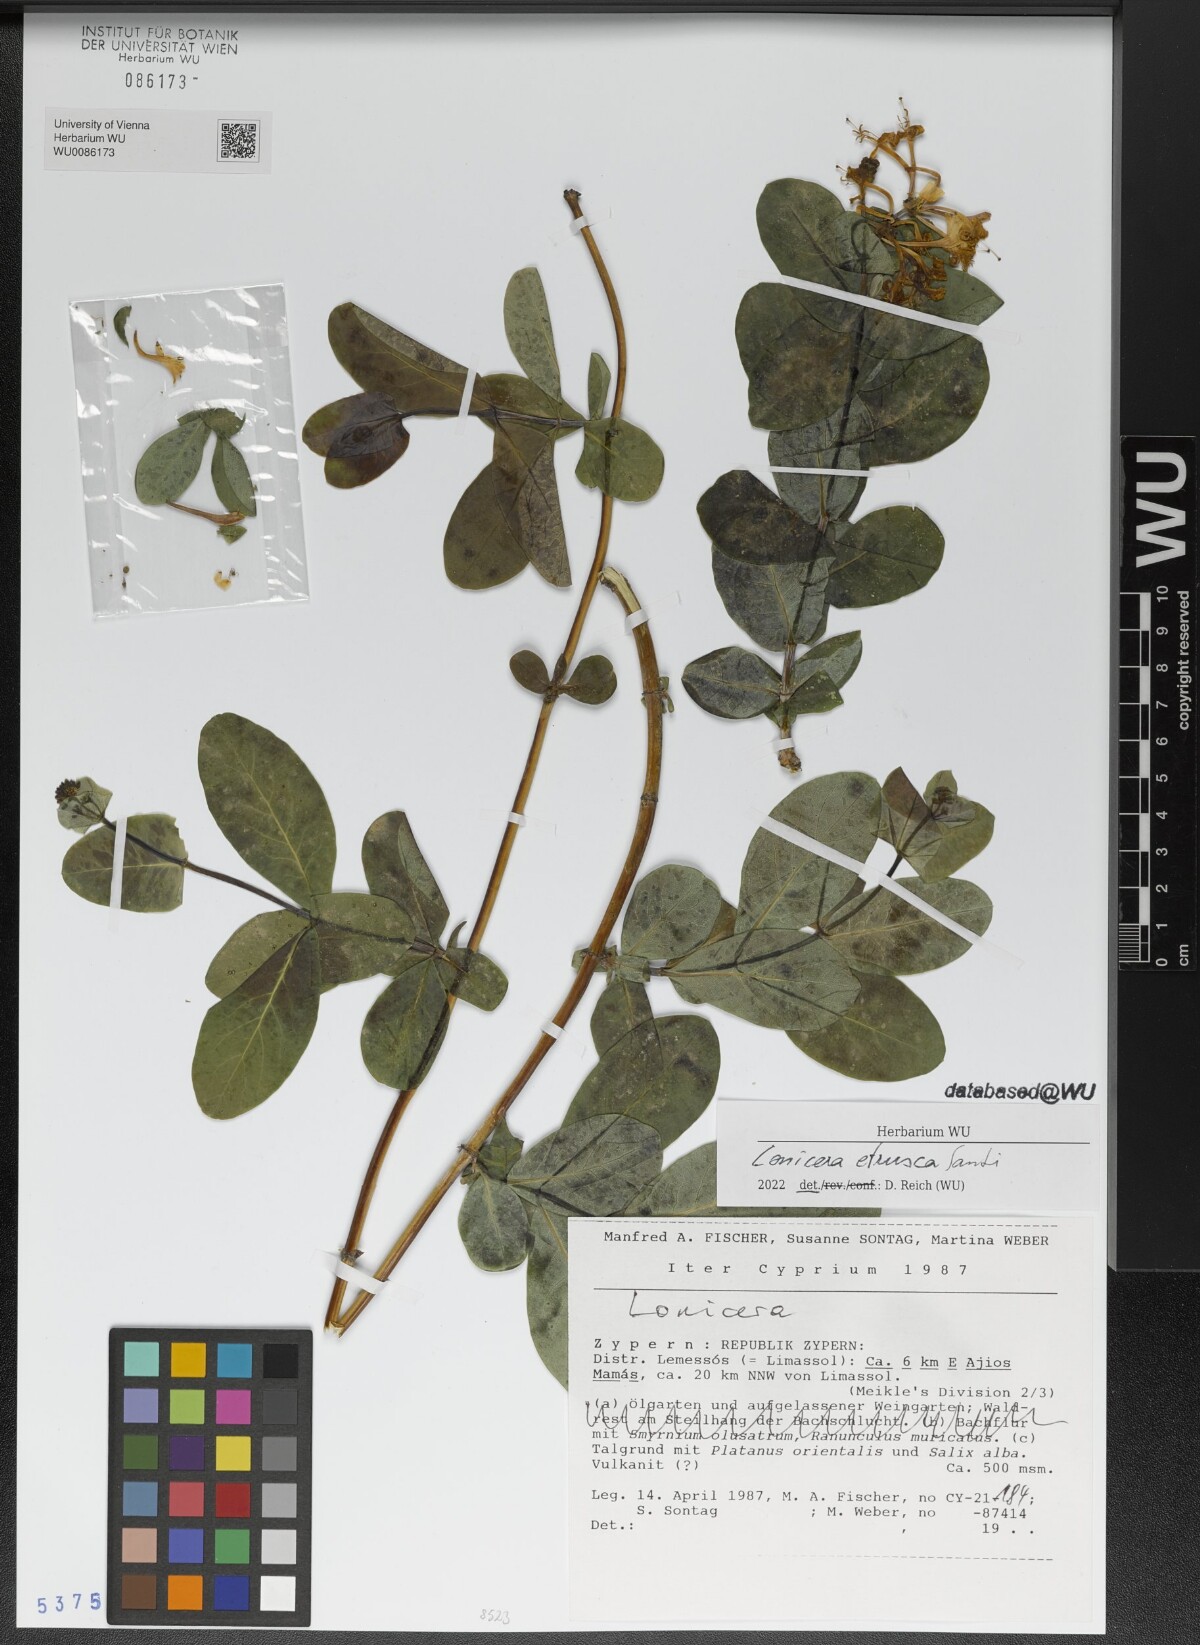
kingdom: Plantae
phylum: Tracheophyta
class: Magnoliopsida
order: Dipsacales
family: Caprifoliaceae
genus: Lonicera
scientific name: Lonicera etrusca
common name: Etruscan honeysuckle
